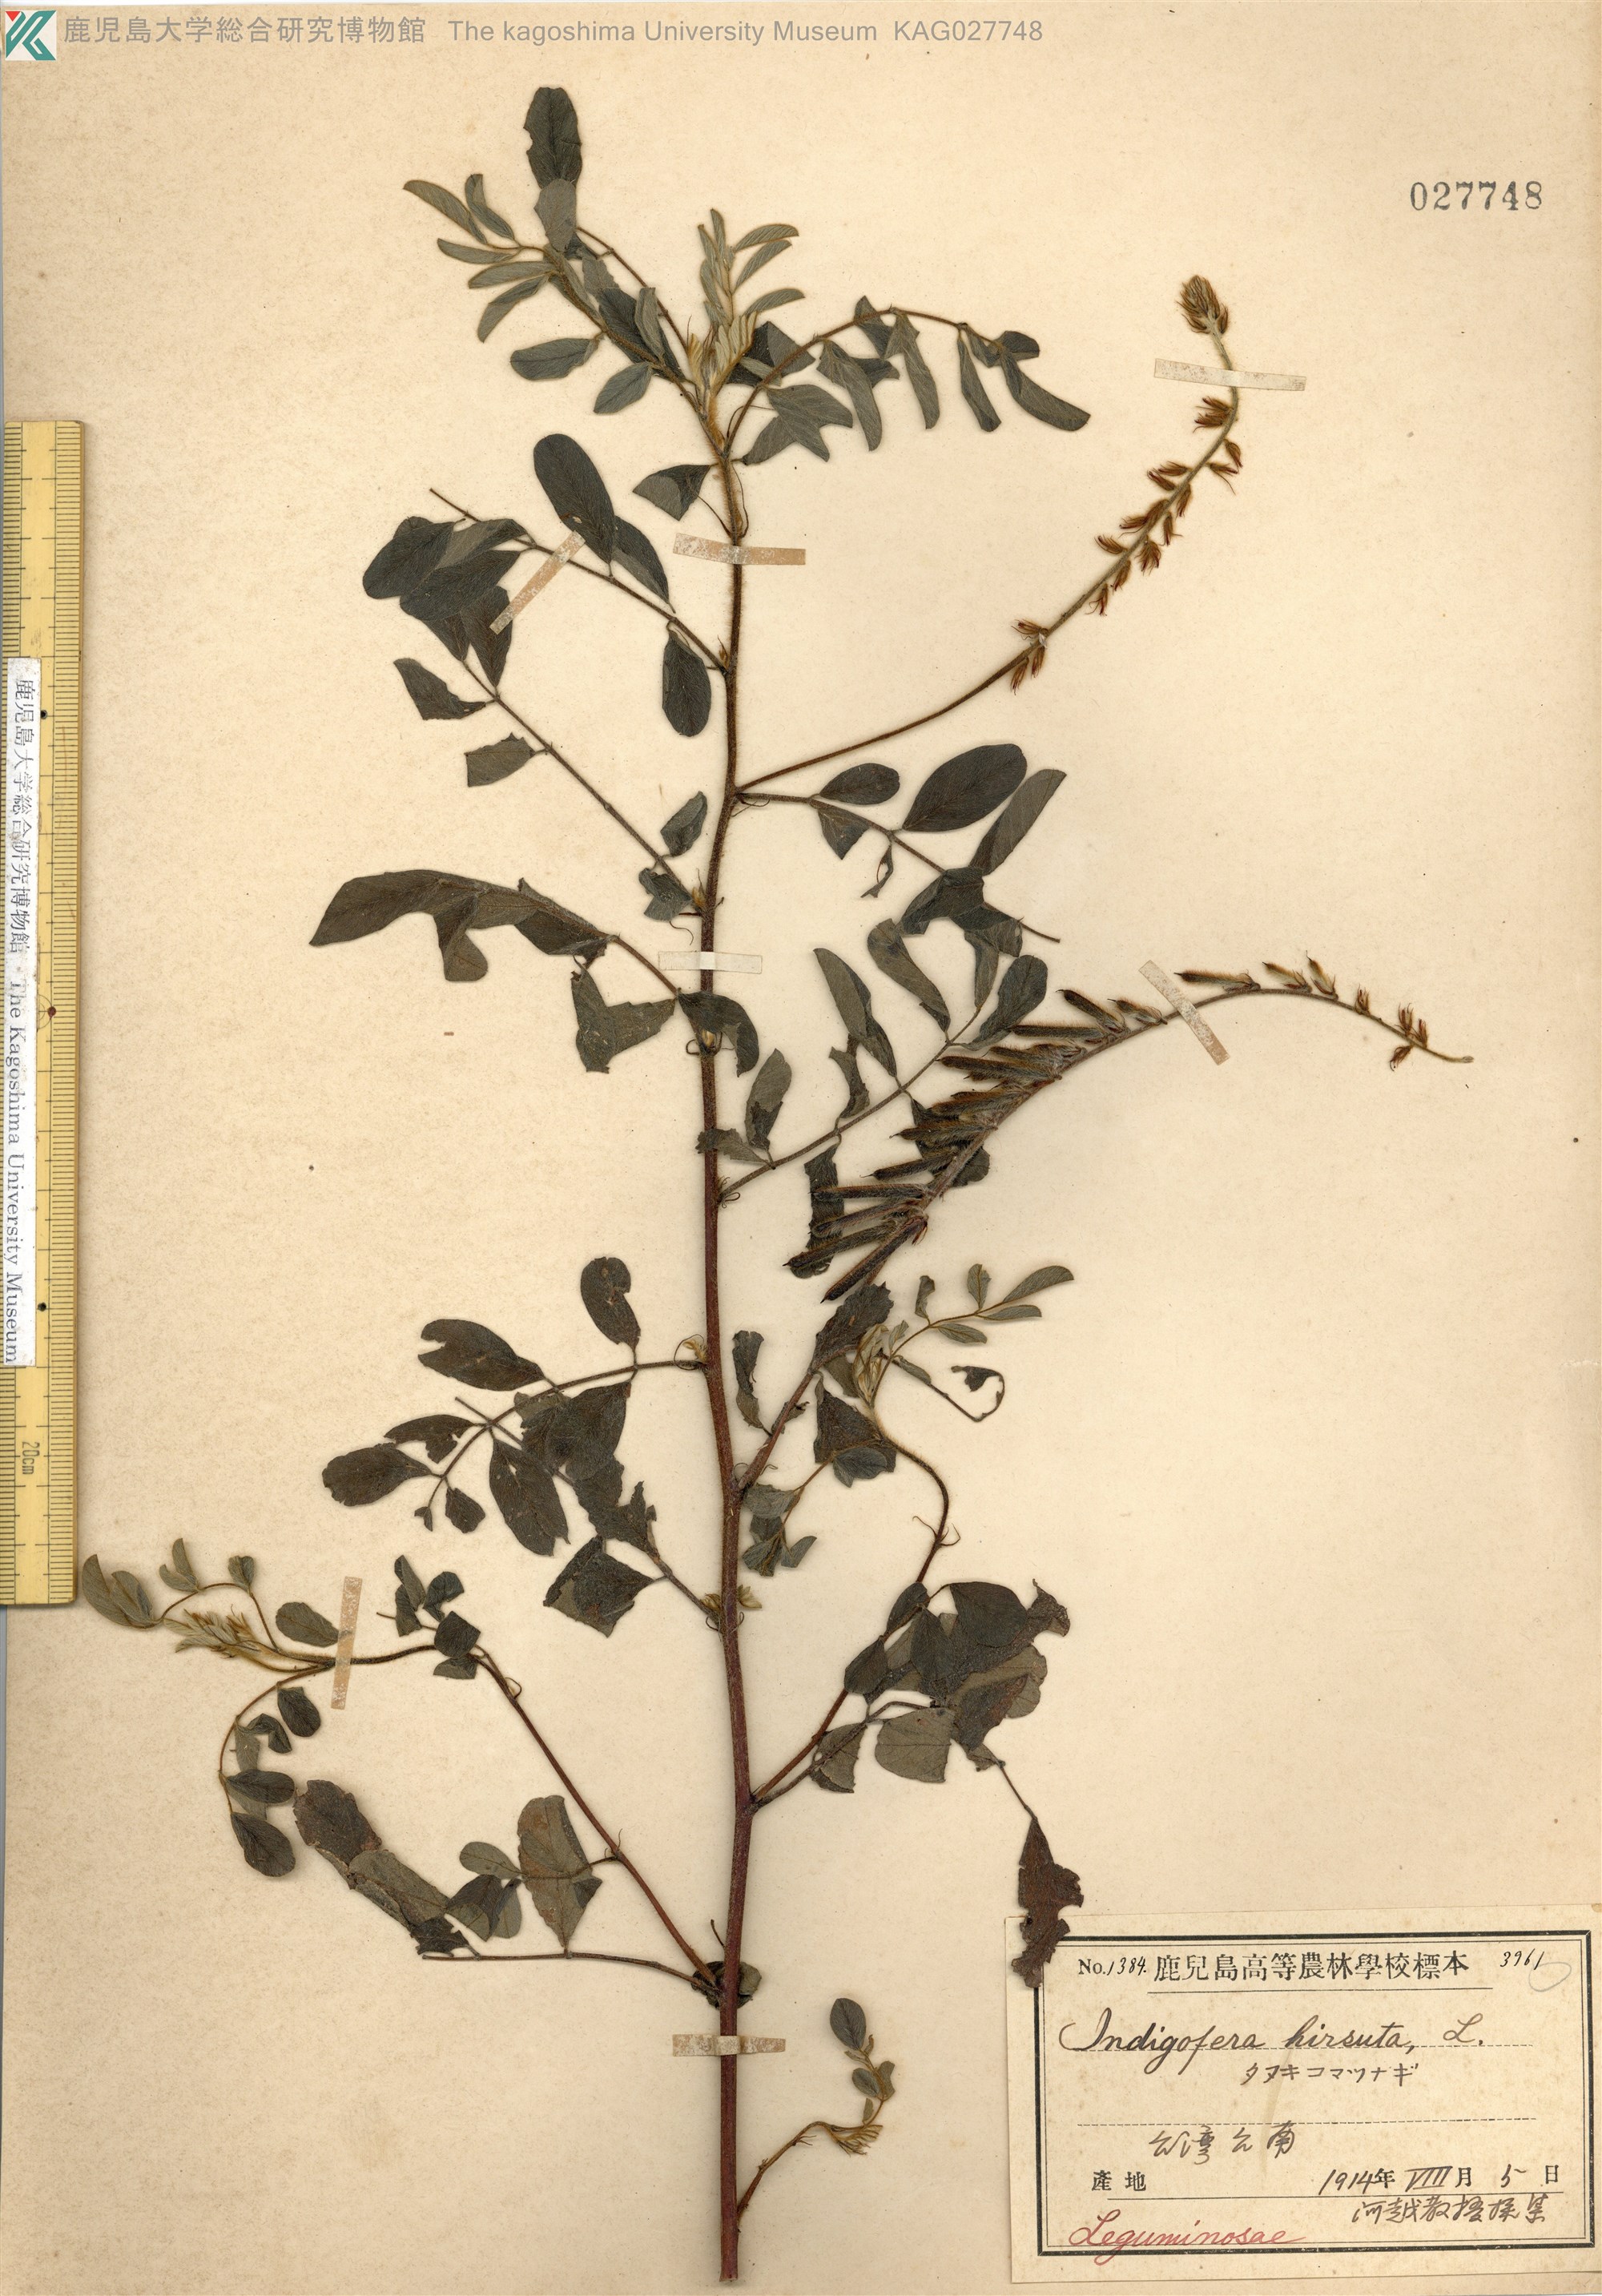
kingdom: Plantae
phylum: Tracheophyta
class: Magnoliopsida
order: Fabales
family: Fabaceae
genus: Indigofera
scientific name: Indigofera hirsuta
